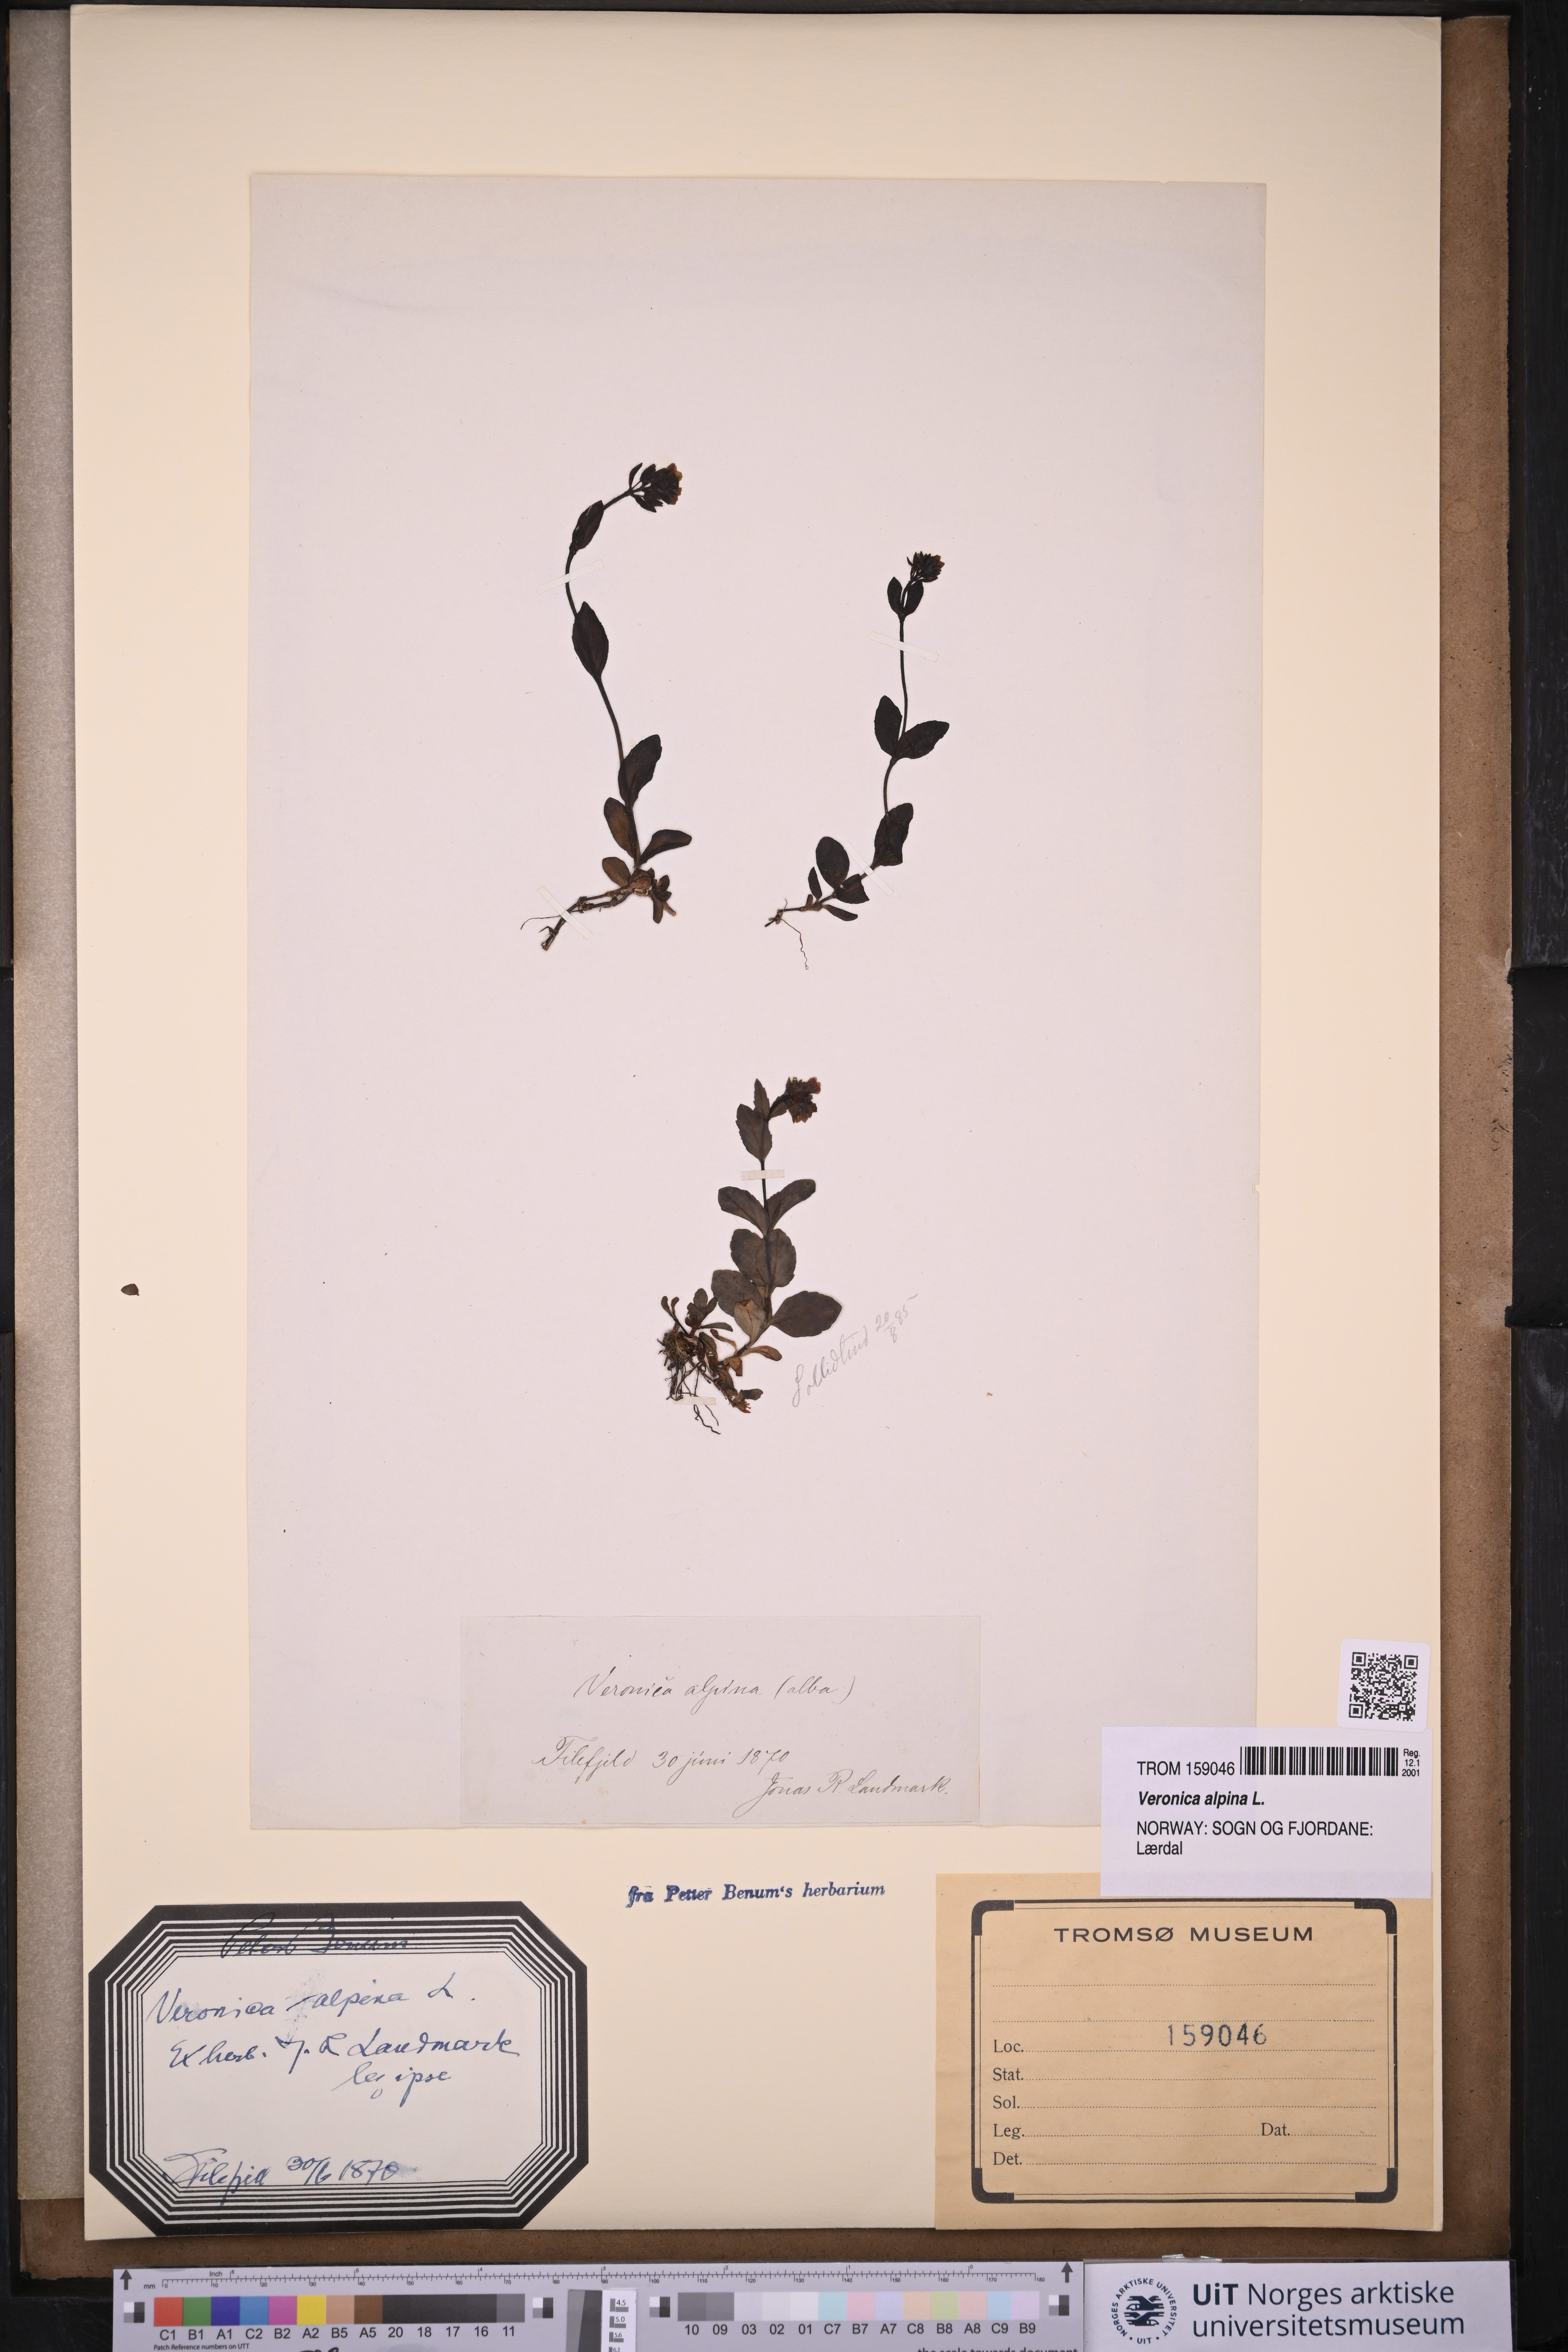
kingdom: Plantae
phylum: Tracheophyta
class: Magnoliopsida
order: Lamiales
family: Plantaginaceae
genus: Veronica
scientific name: Veronica alpina
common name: Alpine speedwell
